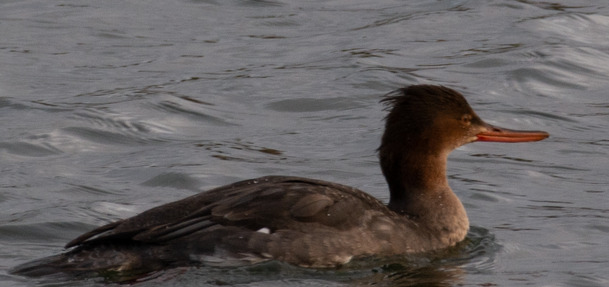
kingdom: Animalia
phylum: Chordata
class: Aves
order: Anseriformes
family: Anatidae
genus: Mergus
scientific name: Mergus serrator
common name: Toppet skallesluger
